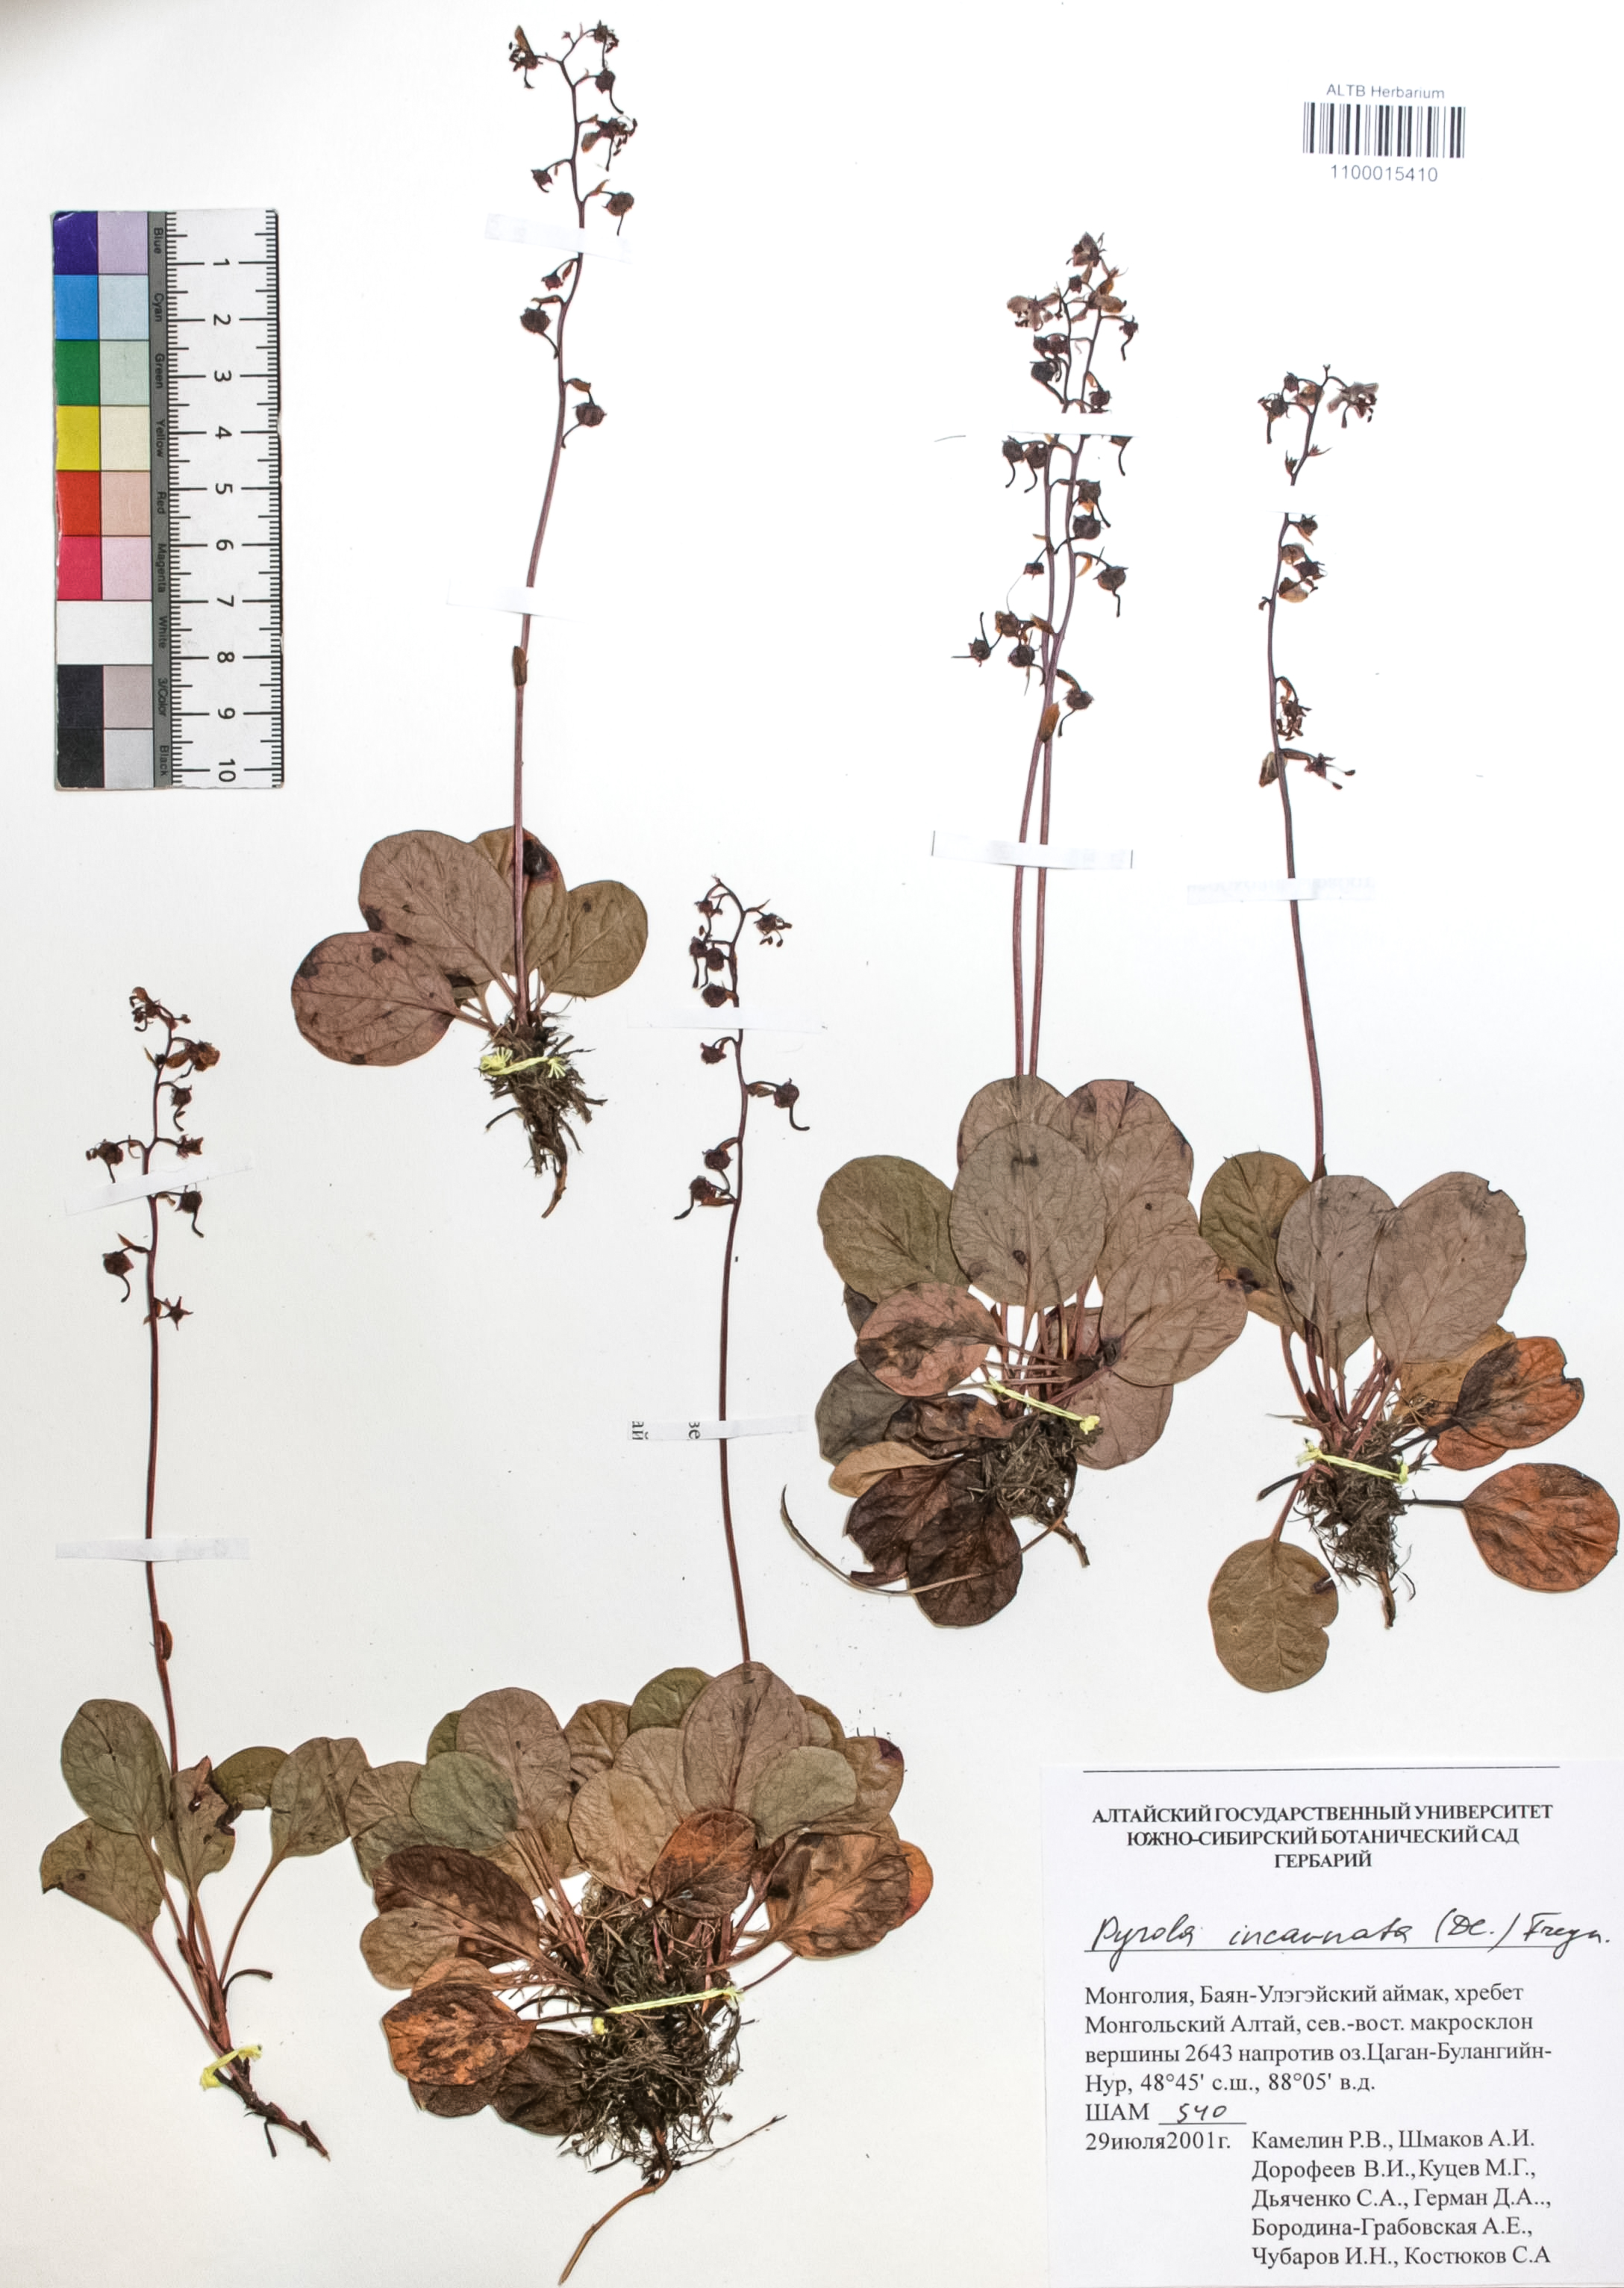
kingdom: Plantae
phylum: Tracheophyta
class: Magnoliopsida
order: Ericales
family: Ericaceae
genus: Pyrola
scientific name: Pyrola asarifolia
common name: Bog wintergreen
